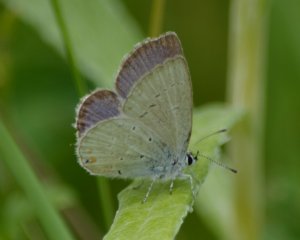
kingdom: Animalia
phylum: Arthropoda
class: Insecta
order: Lepidoptera
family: Lycaenidae
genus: Elkalyce
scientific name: Elkalyce amyntula
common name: Western Tailed-Blue
